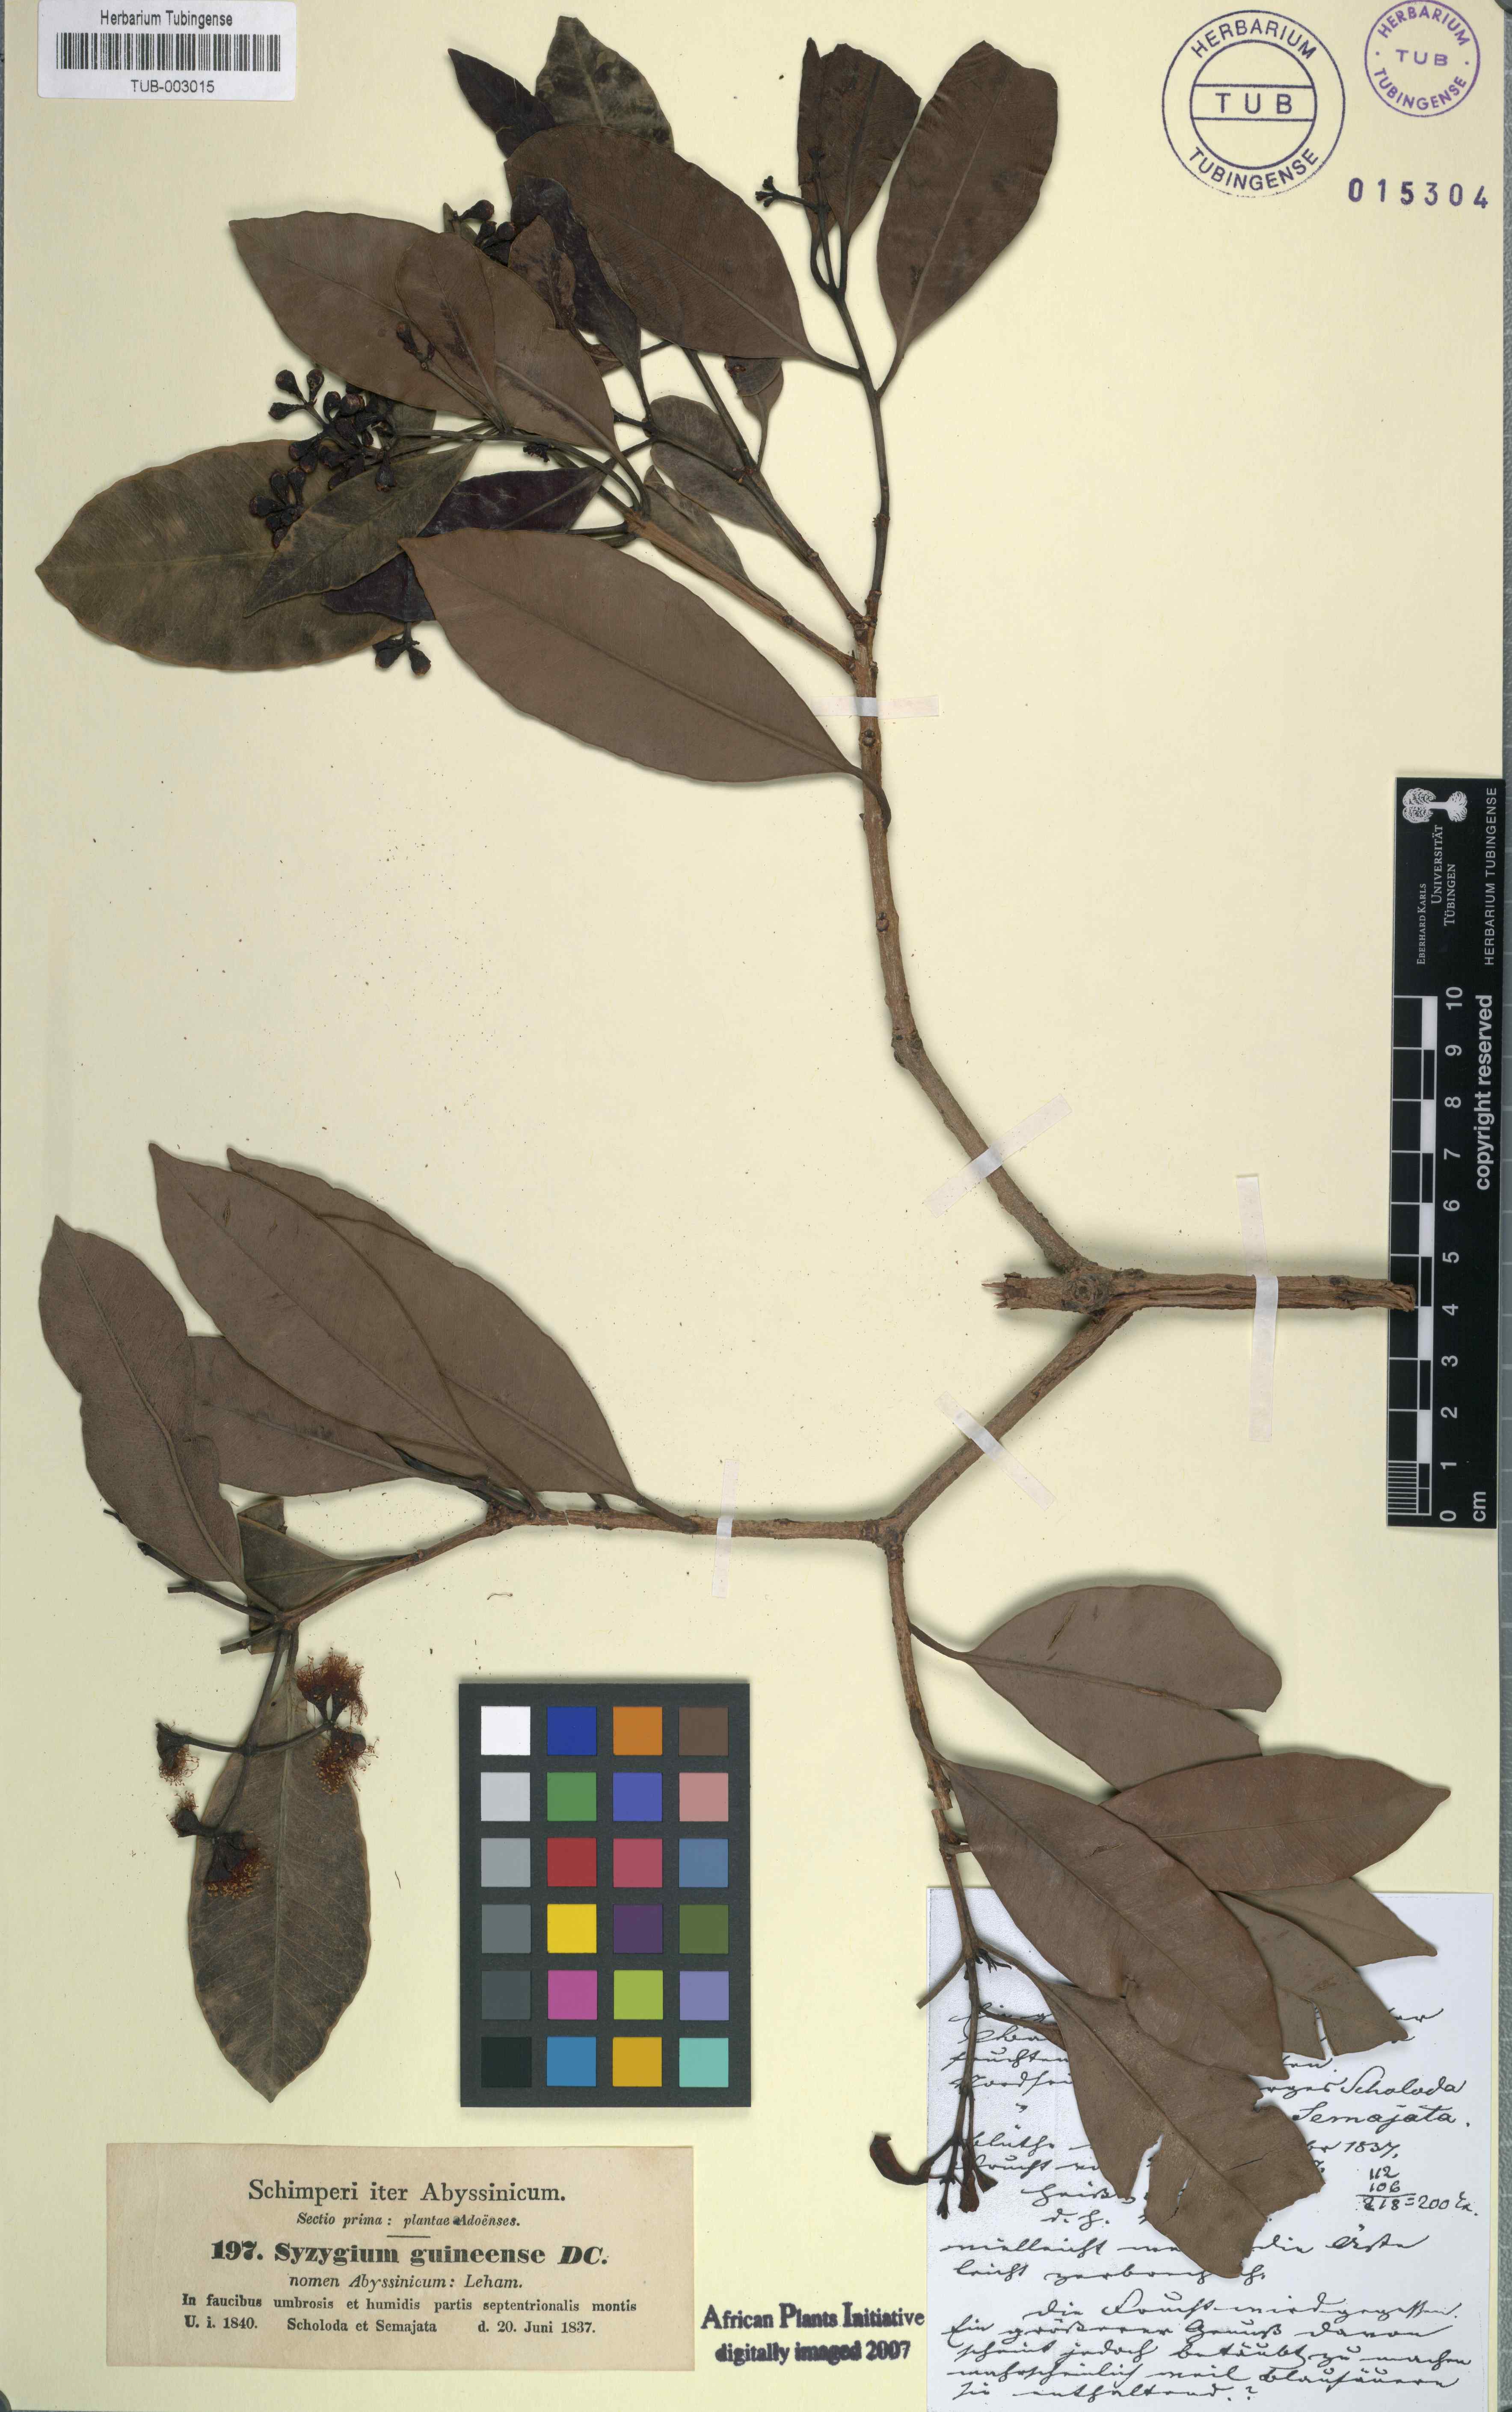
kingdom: Plantae
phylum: Tracheophyta
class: Magnoliopsida
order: Myrtales
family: Myrtaceae
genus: Syzygium
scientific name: Syzygium guineense
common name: Water-pear
